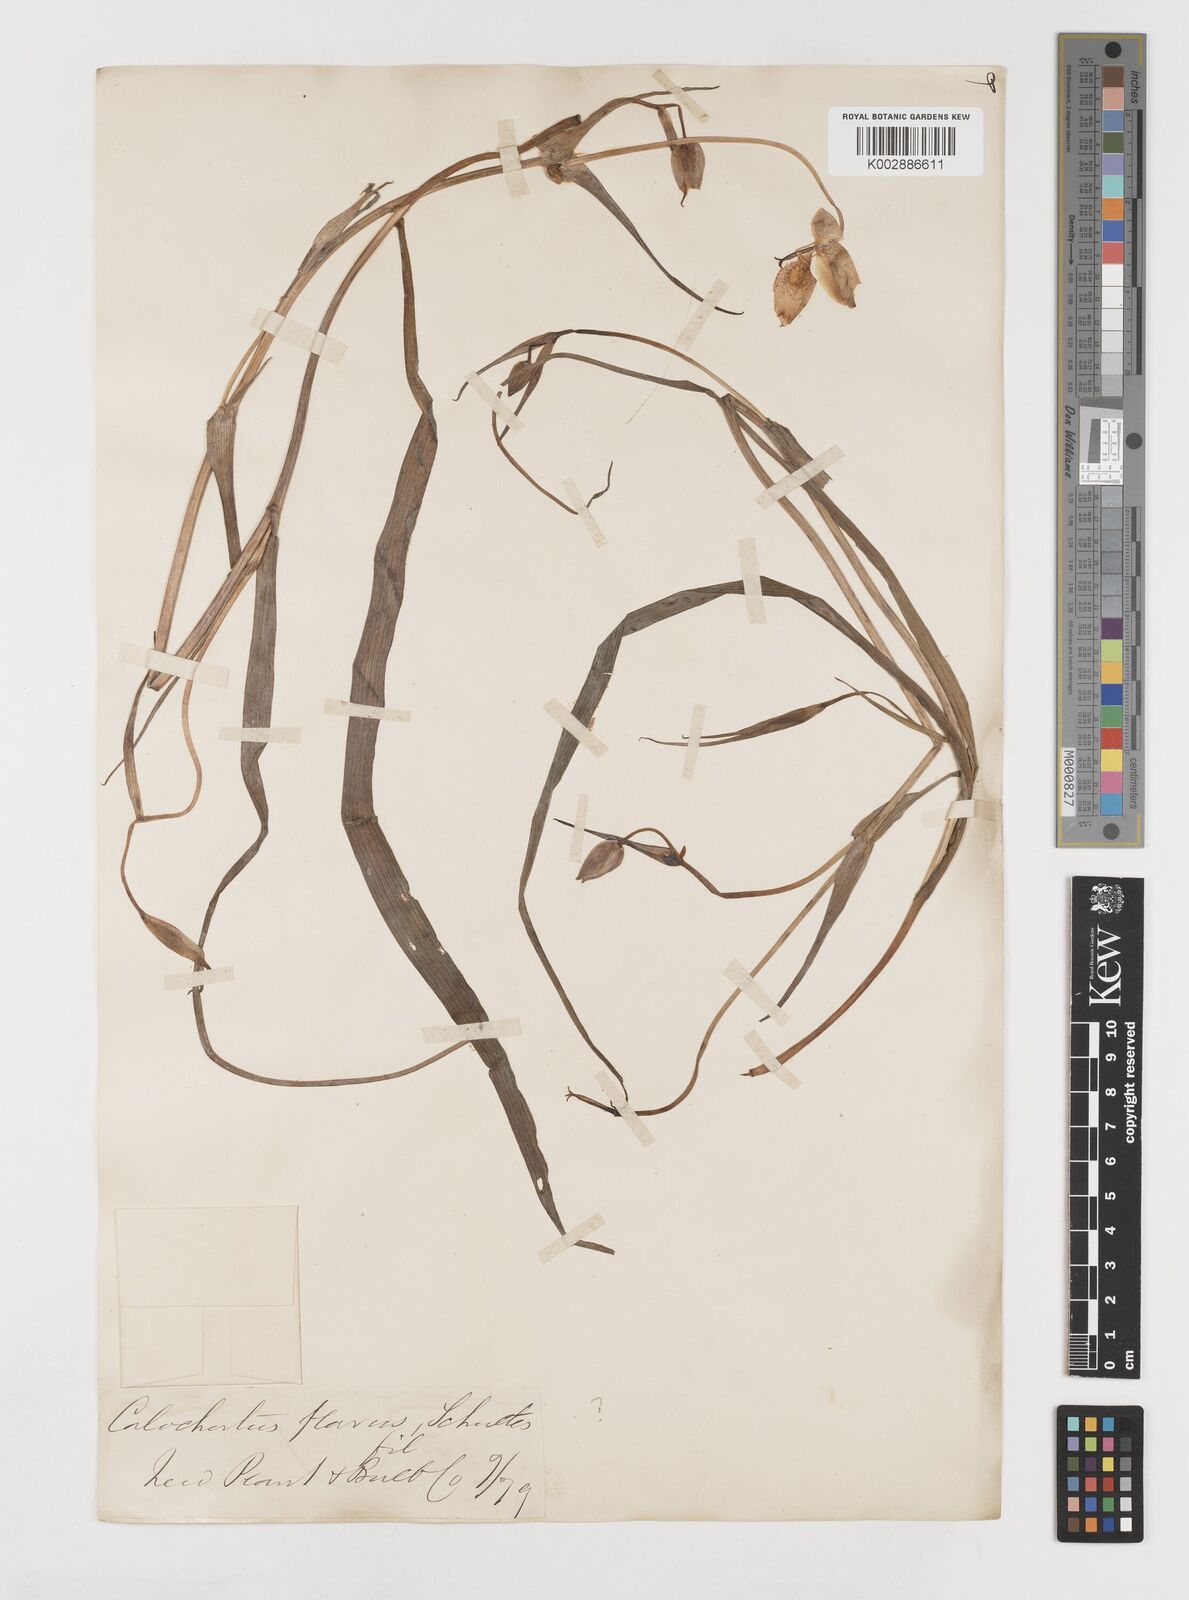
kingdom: Plantae
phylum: Tracheophyta
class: Liliopsida
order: Liliales
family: Liliaceae
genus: Calochortus
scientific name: Calochortus barbatus
